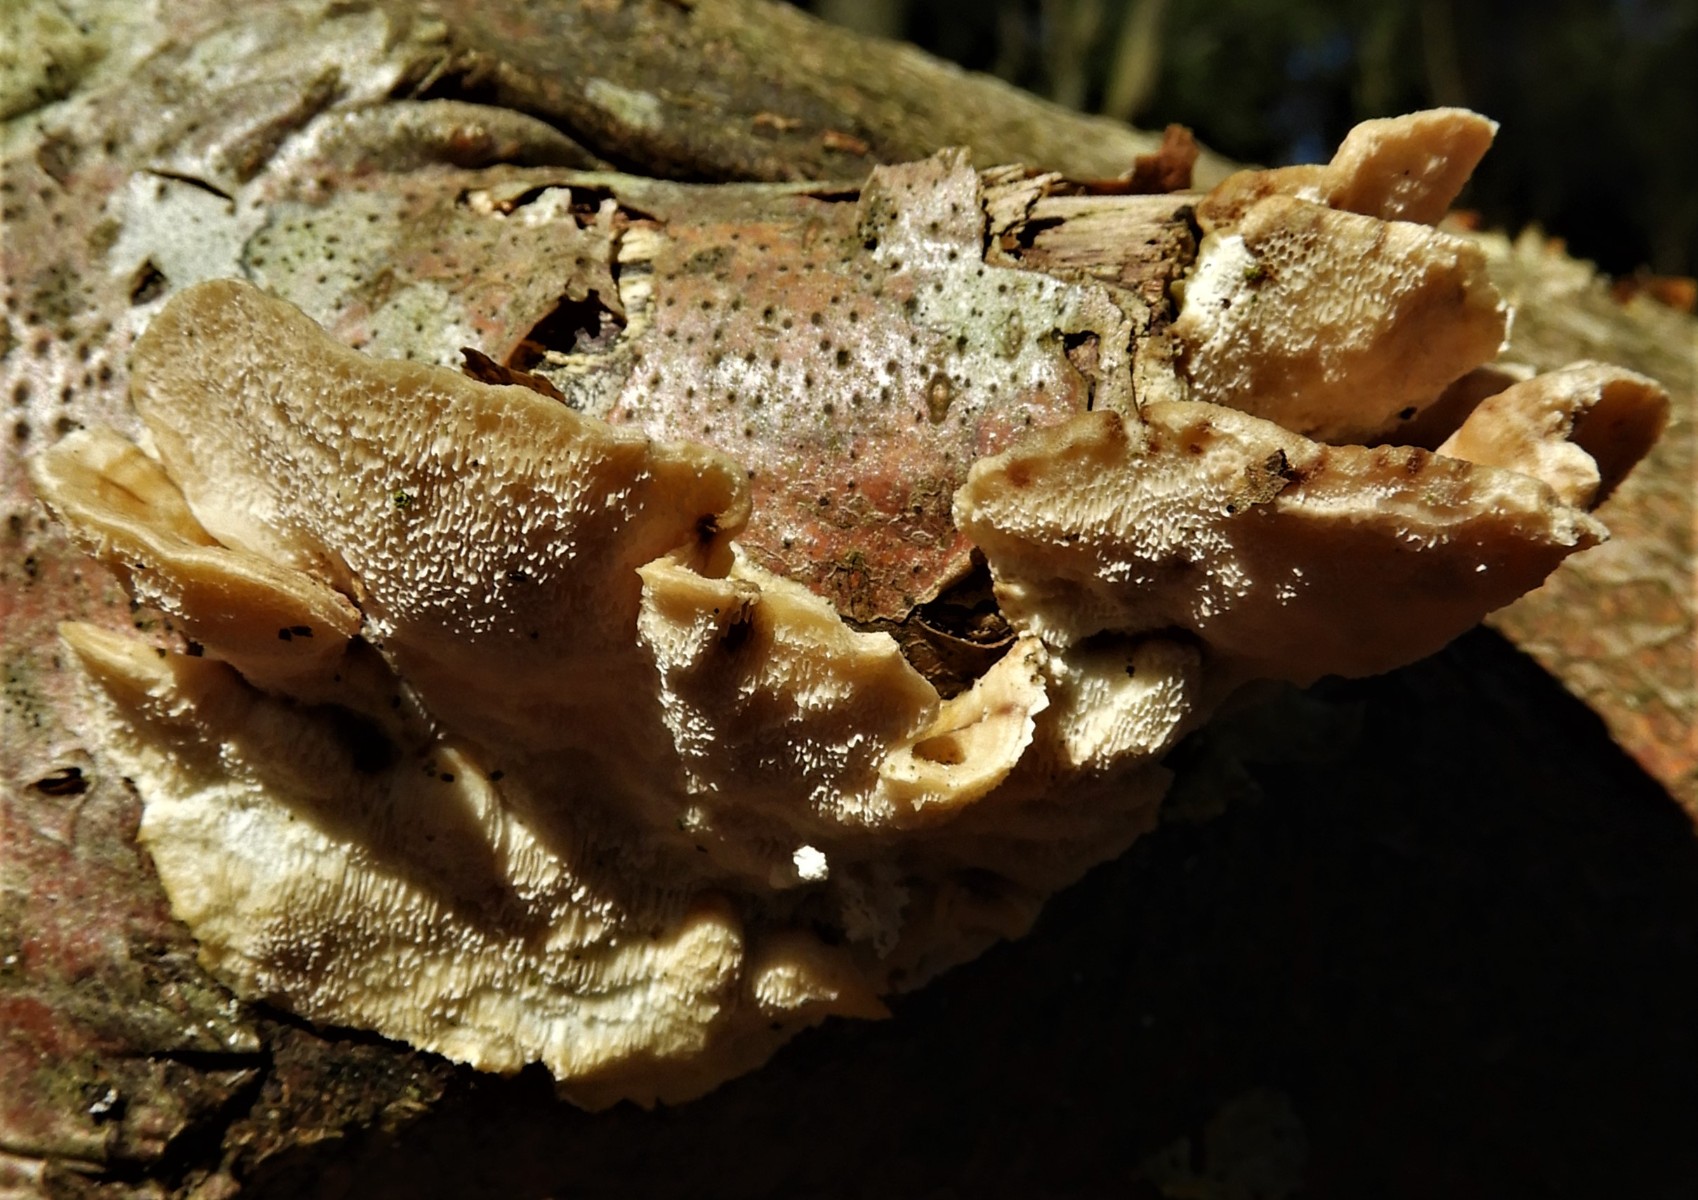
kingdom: Fungi
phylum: Basidiomycota
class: Agaricomycetes
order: Polyporales
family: Polyporaceae
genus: Trametes
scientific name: Trametes ochracea
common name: bæltet læderporesvamp
